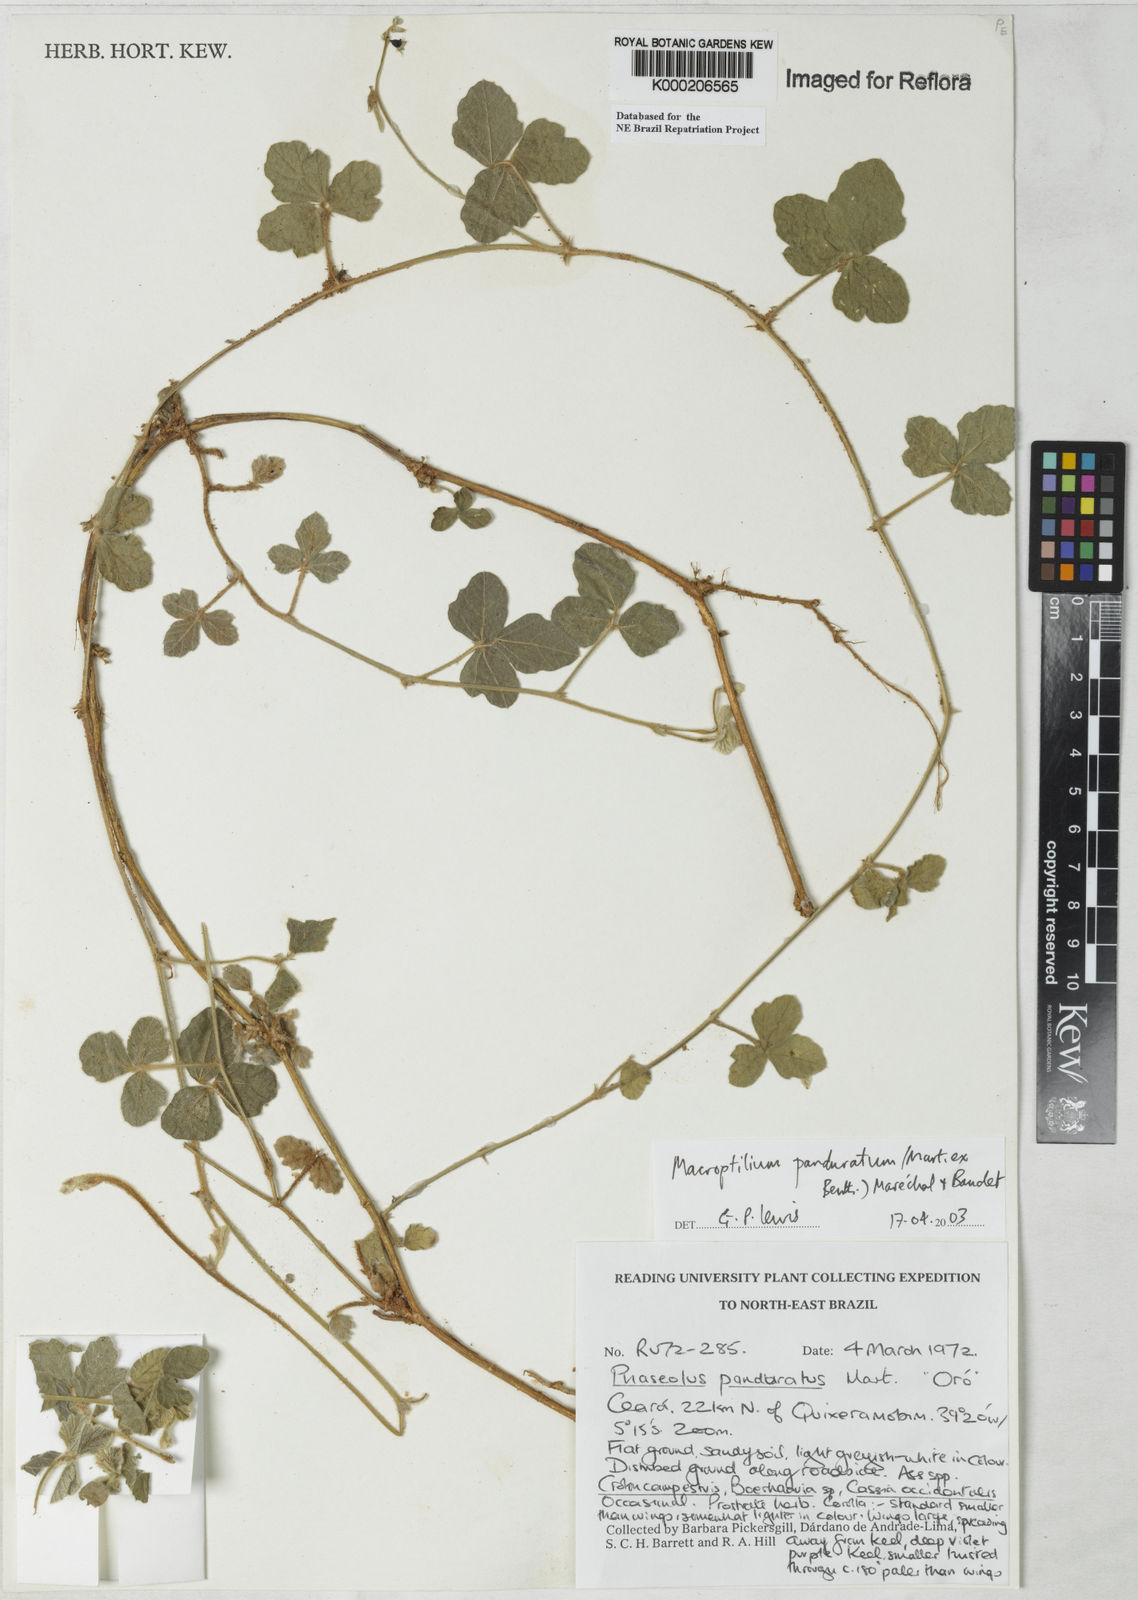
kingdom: Plantae
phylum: Tracheophyta
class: Magnoliopsida
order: Fabales
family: Fabaceae
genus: Macroptilium
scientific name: Macroptilium
